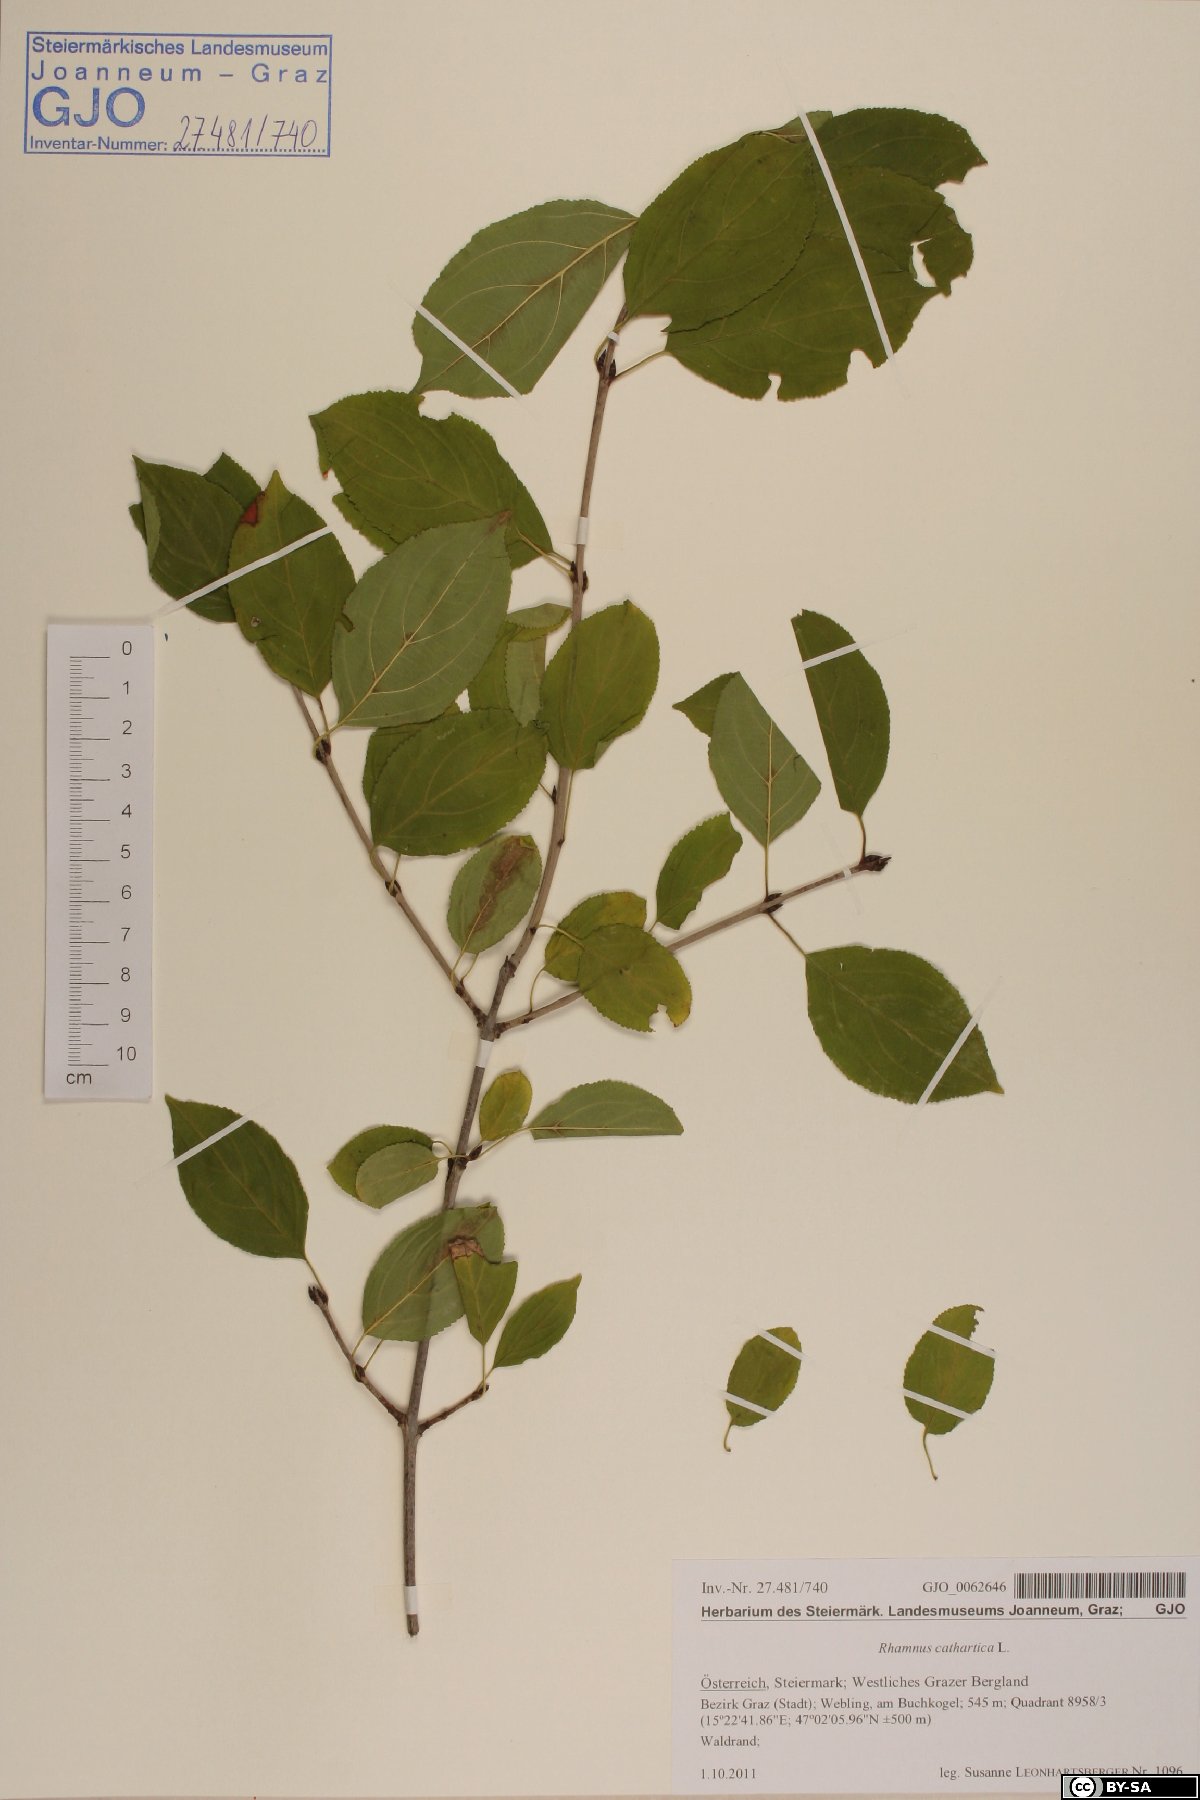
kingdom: Plantae
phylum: Tracheophyta
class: Magnoliopsida
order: Rosales
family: Rhamnaceae
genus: Rhamnus
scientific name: Rhamnus cathartica
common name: Common buckthorn
